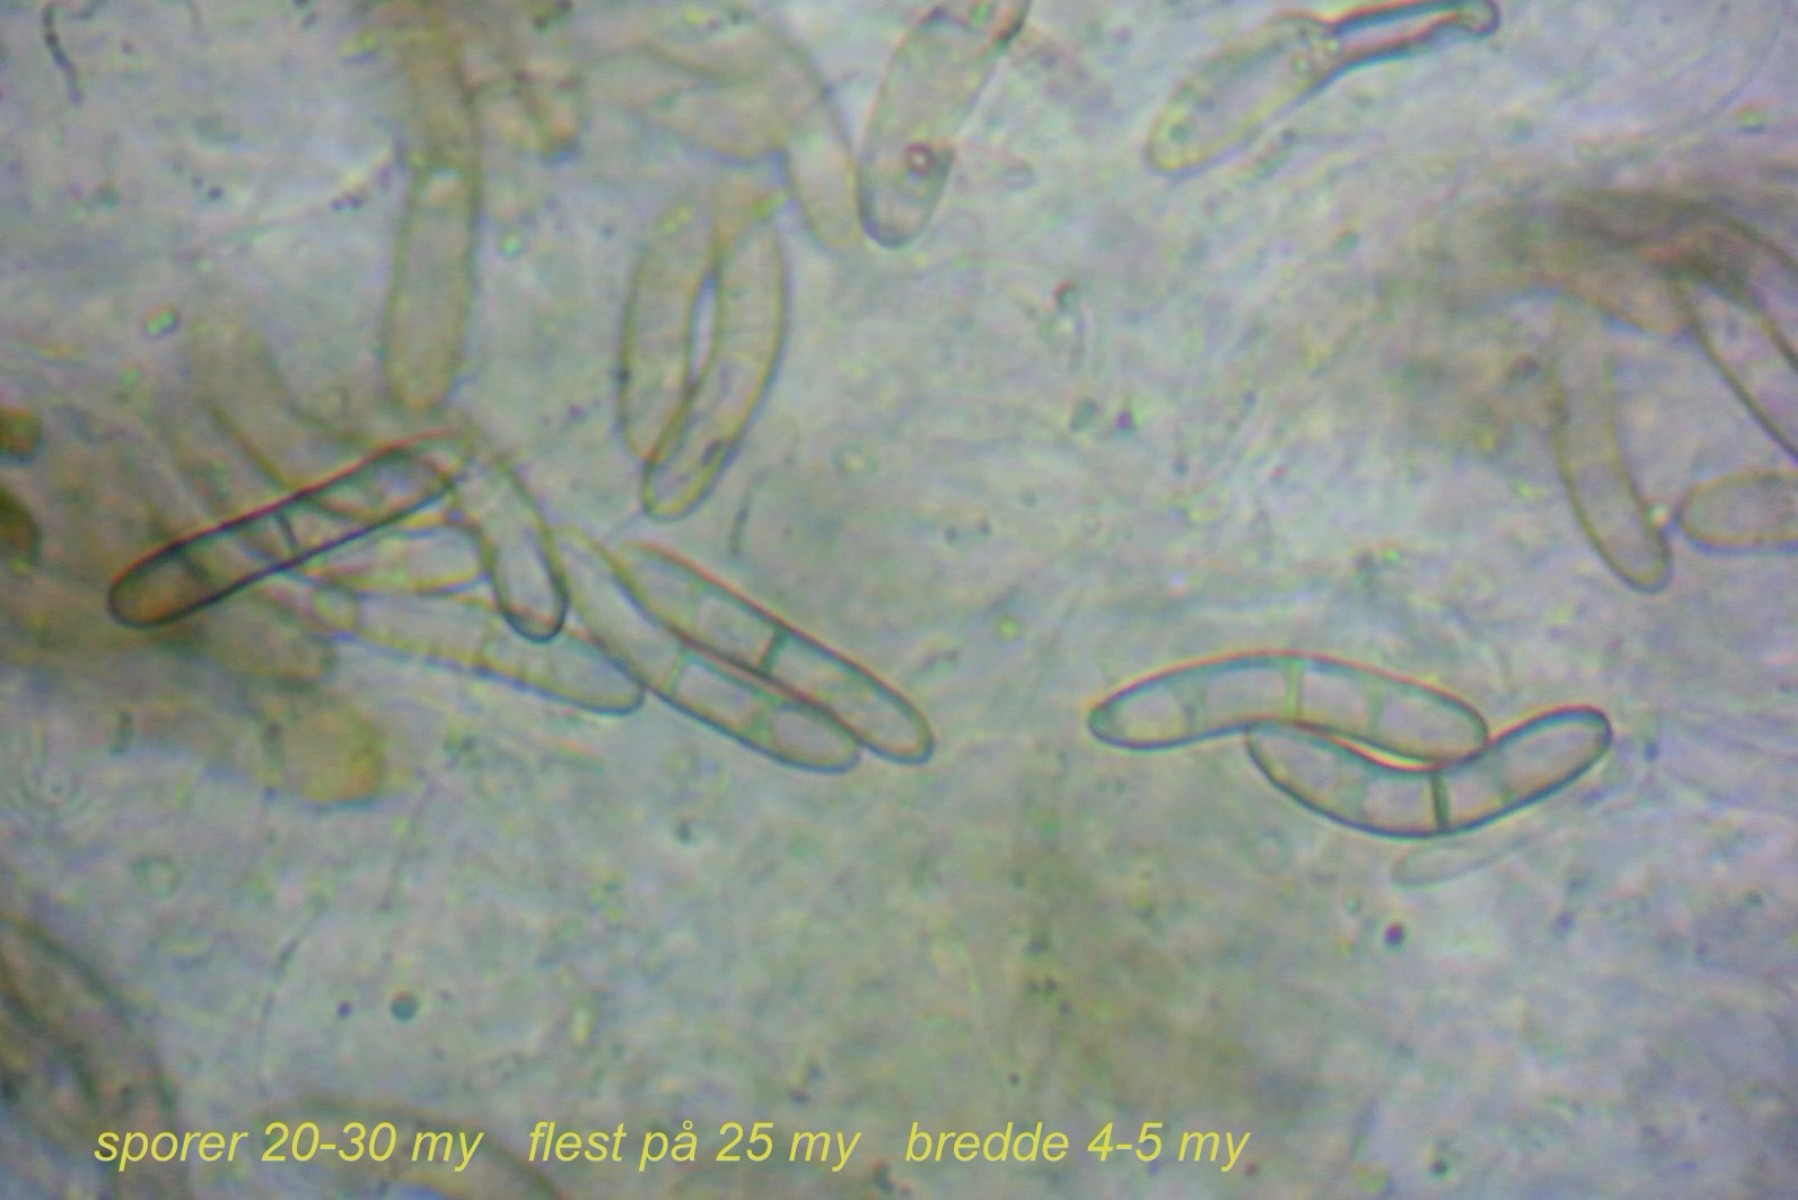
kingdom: Fungi
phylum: Ascomycota
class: Sordariomycetes
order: Sordariales
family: Helminthosphaeriaceae
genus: Echinosphaeria
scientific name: Echinosphaeria canescens
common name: brun børstekerne
